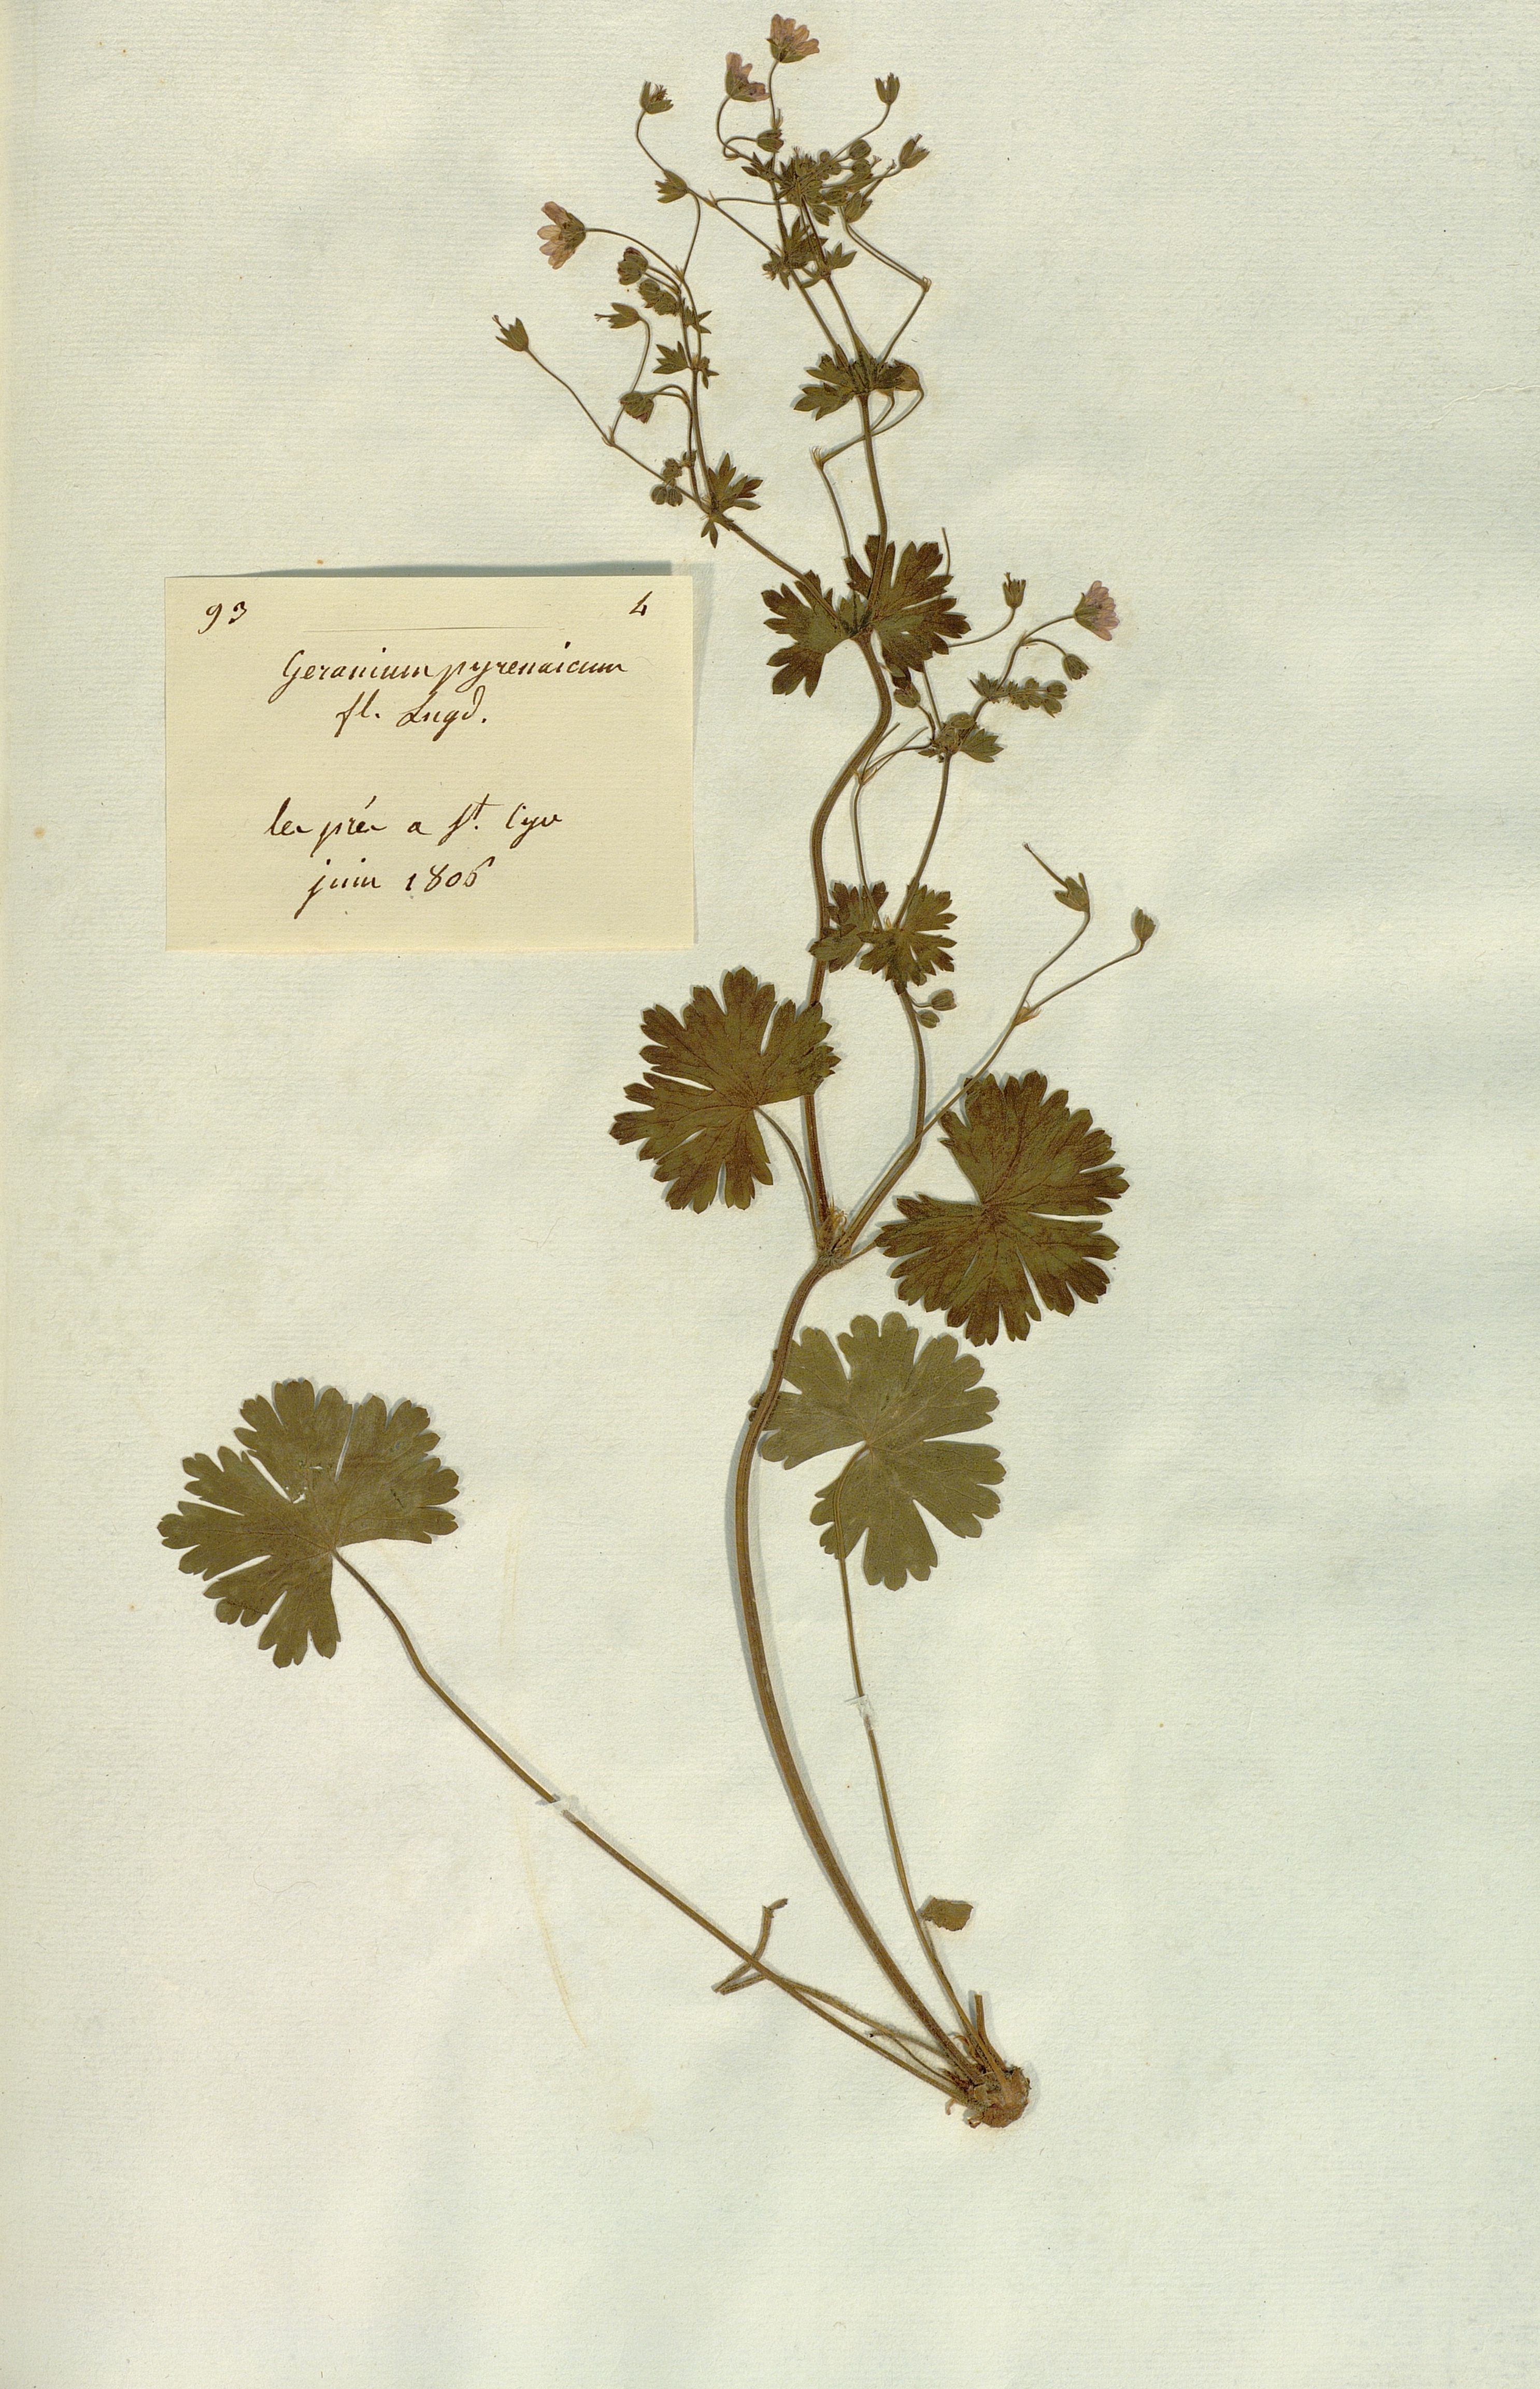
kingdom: Plantae
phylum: Tracheophyta
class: Magnoliopsida
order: Geraniales
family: Geraniaceae
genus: Geranium
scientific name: Geranium pyrenaicum
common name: Hedgerow crane's-bill
